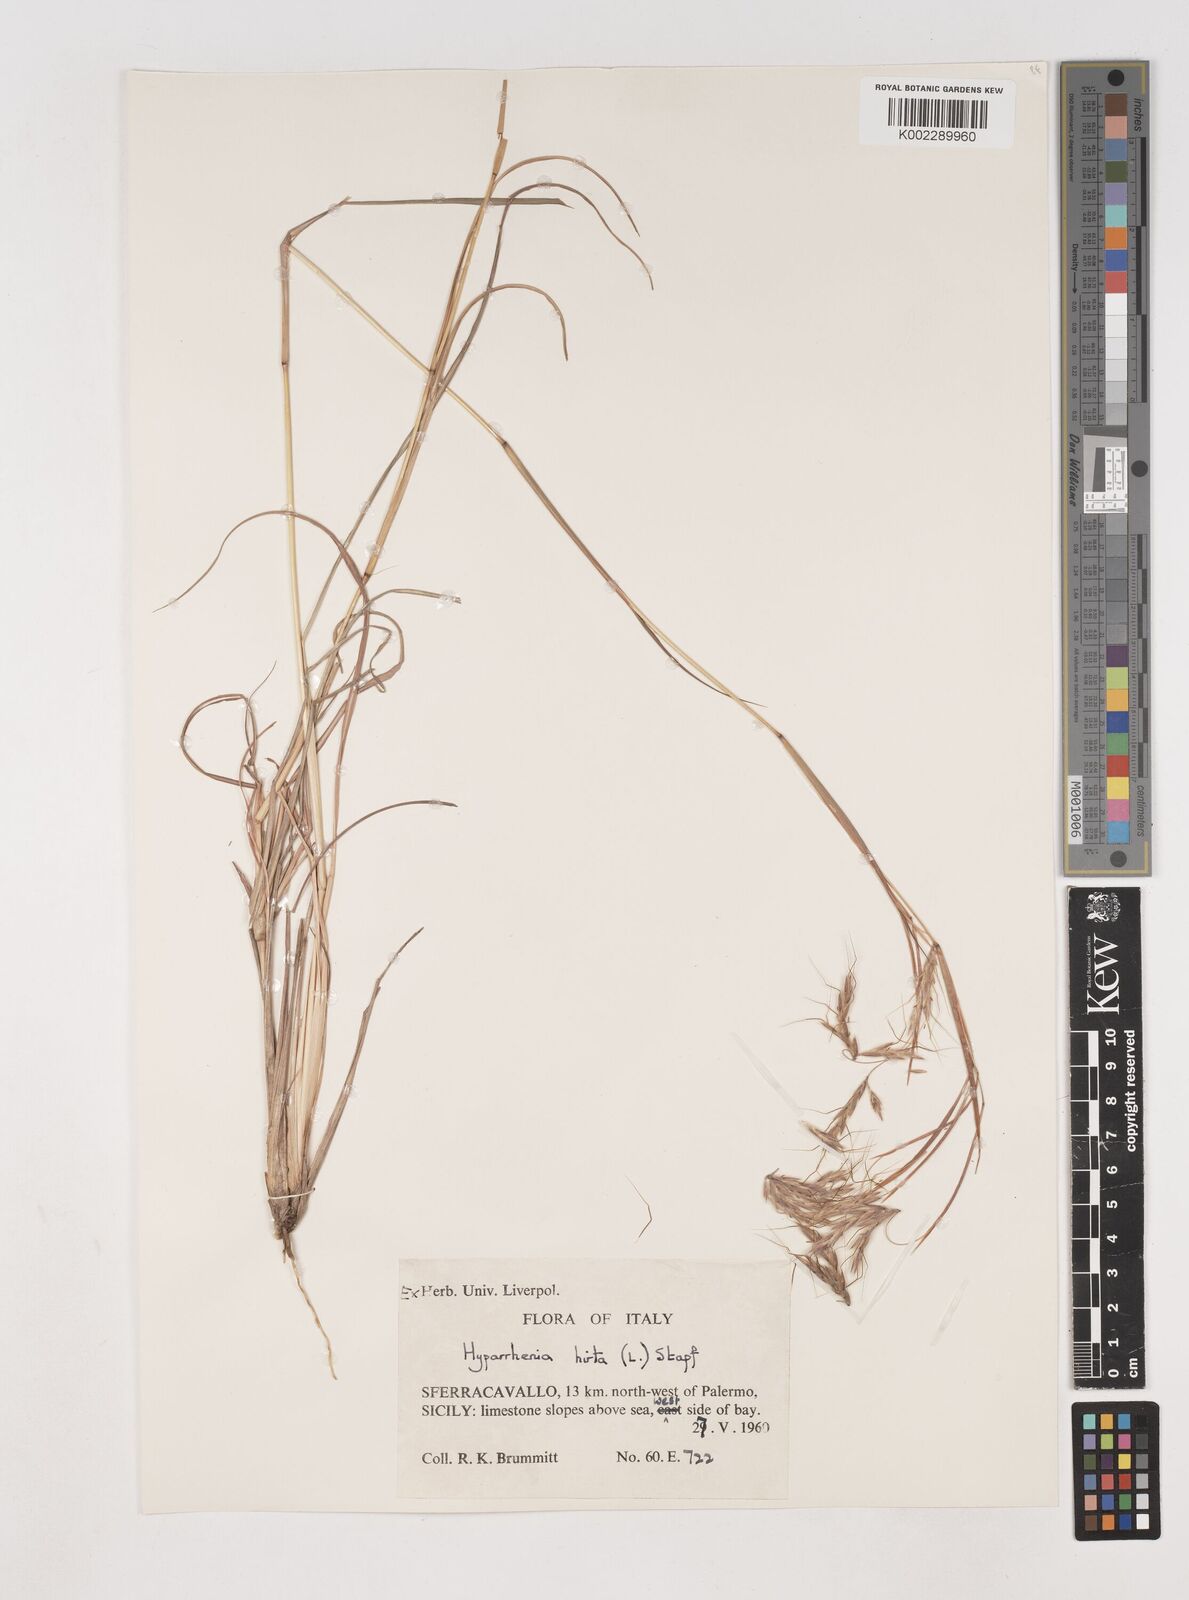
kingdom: Plantae
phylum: Tracheophyta
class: Liliopsida
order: Poales
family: Poaceae
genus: Hyparrhenia
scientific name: Hyparrhenia hirta
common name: Thatching grass
